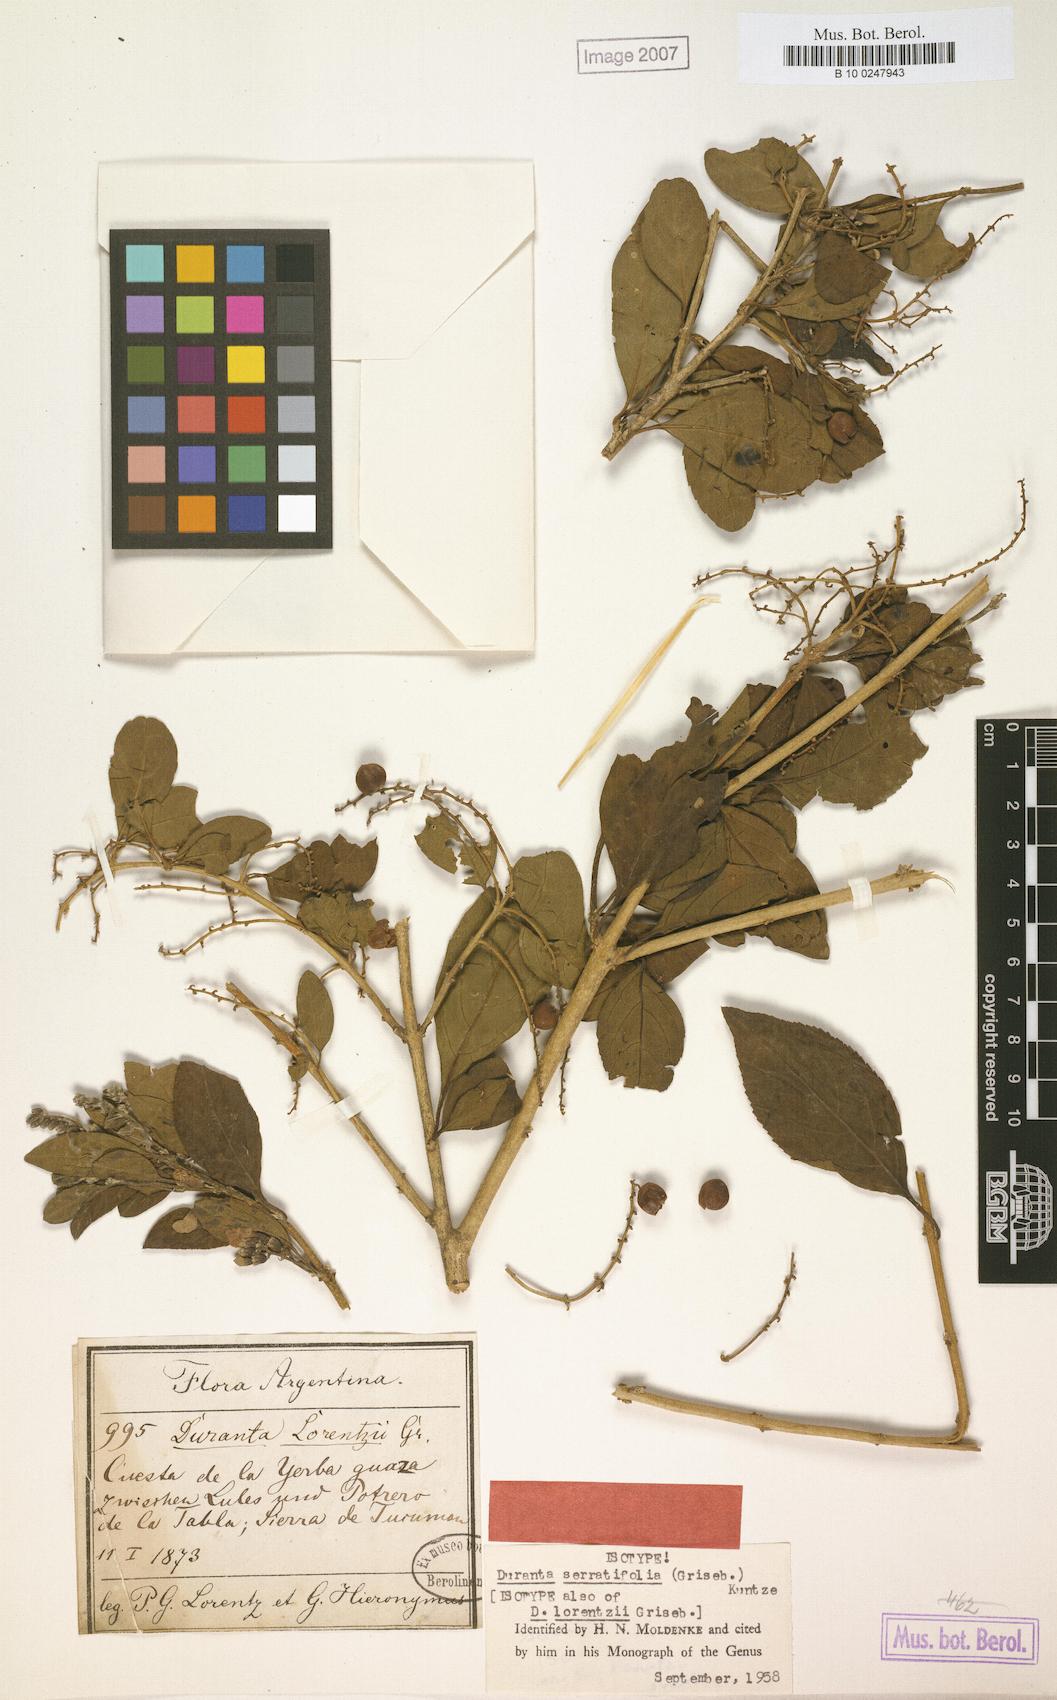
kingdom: Plantae
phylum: Tracheophyta
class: Magnoliopsida
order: Lamiales
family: Verbenaceae
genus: Duranta
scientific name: Duranta serratifolia
